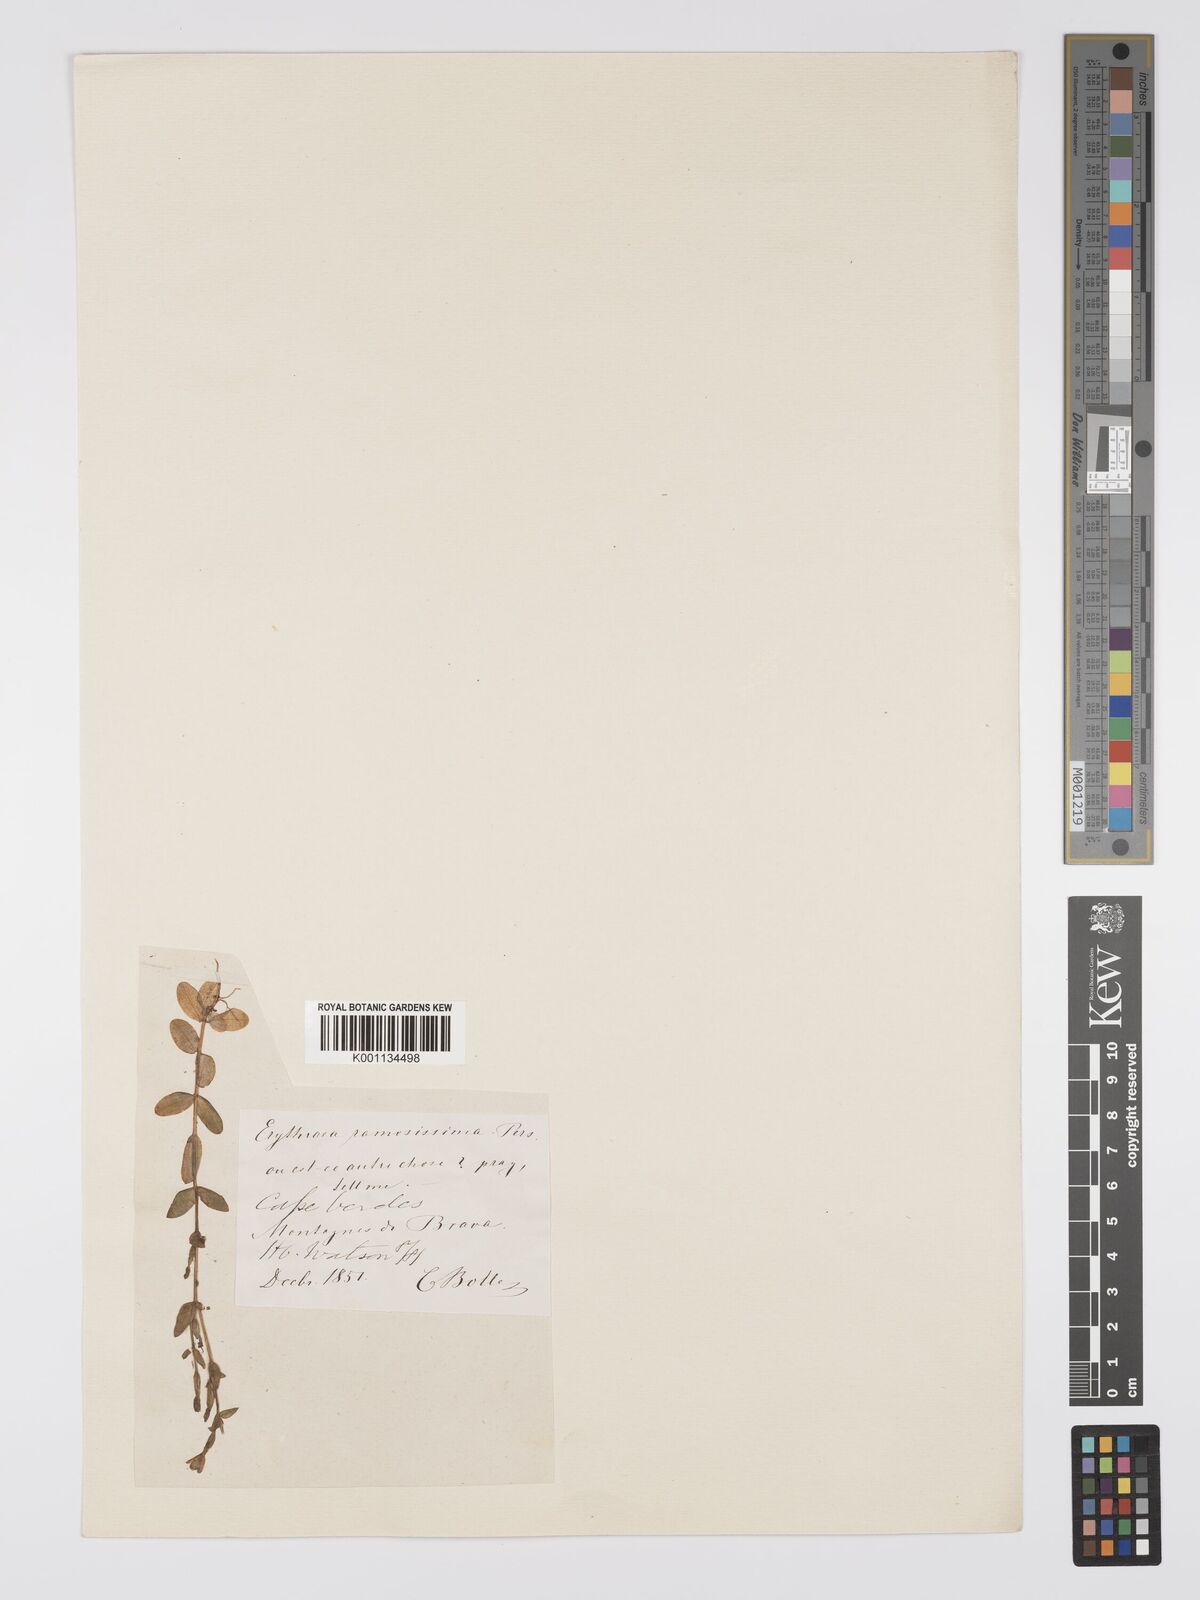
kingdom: Plantae
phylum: Tracheophyta
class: Magnoliopsida
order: Gentianales
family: Gentianaceae
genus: Centaurium
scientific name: Centaurium pulchellum
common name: Lesser centaury
